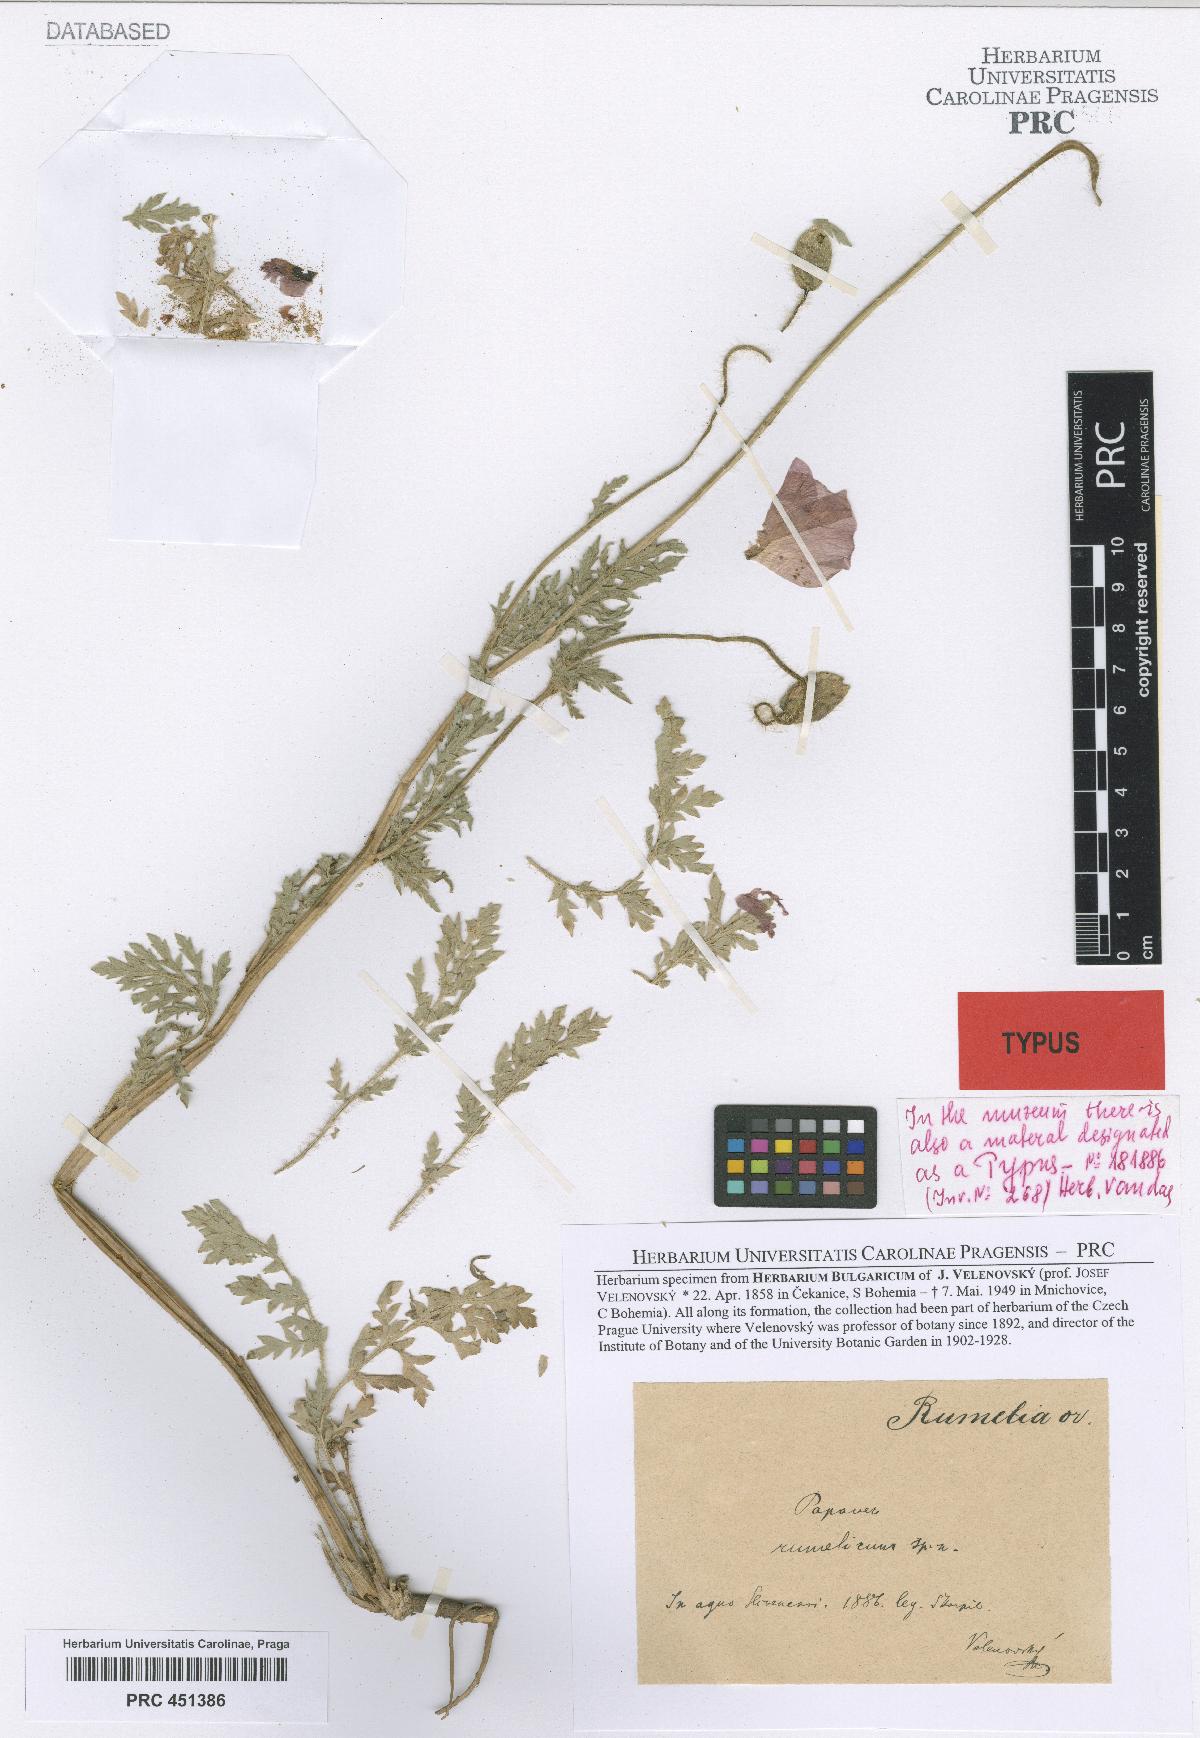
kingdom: Plantae
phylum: Tracheophyta
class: Magnoliopsida
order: Ranunculales
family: Papaveraceae
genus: Corydalis
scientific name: Corydalis uniflora
